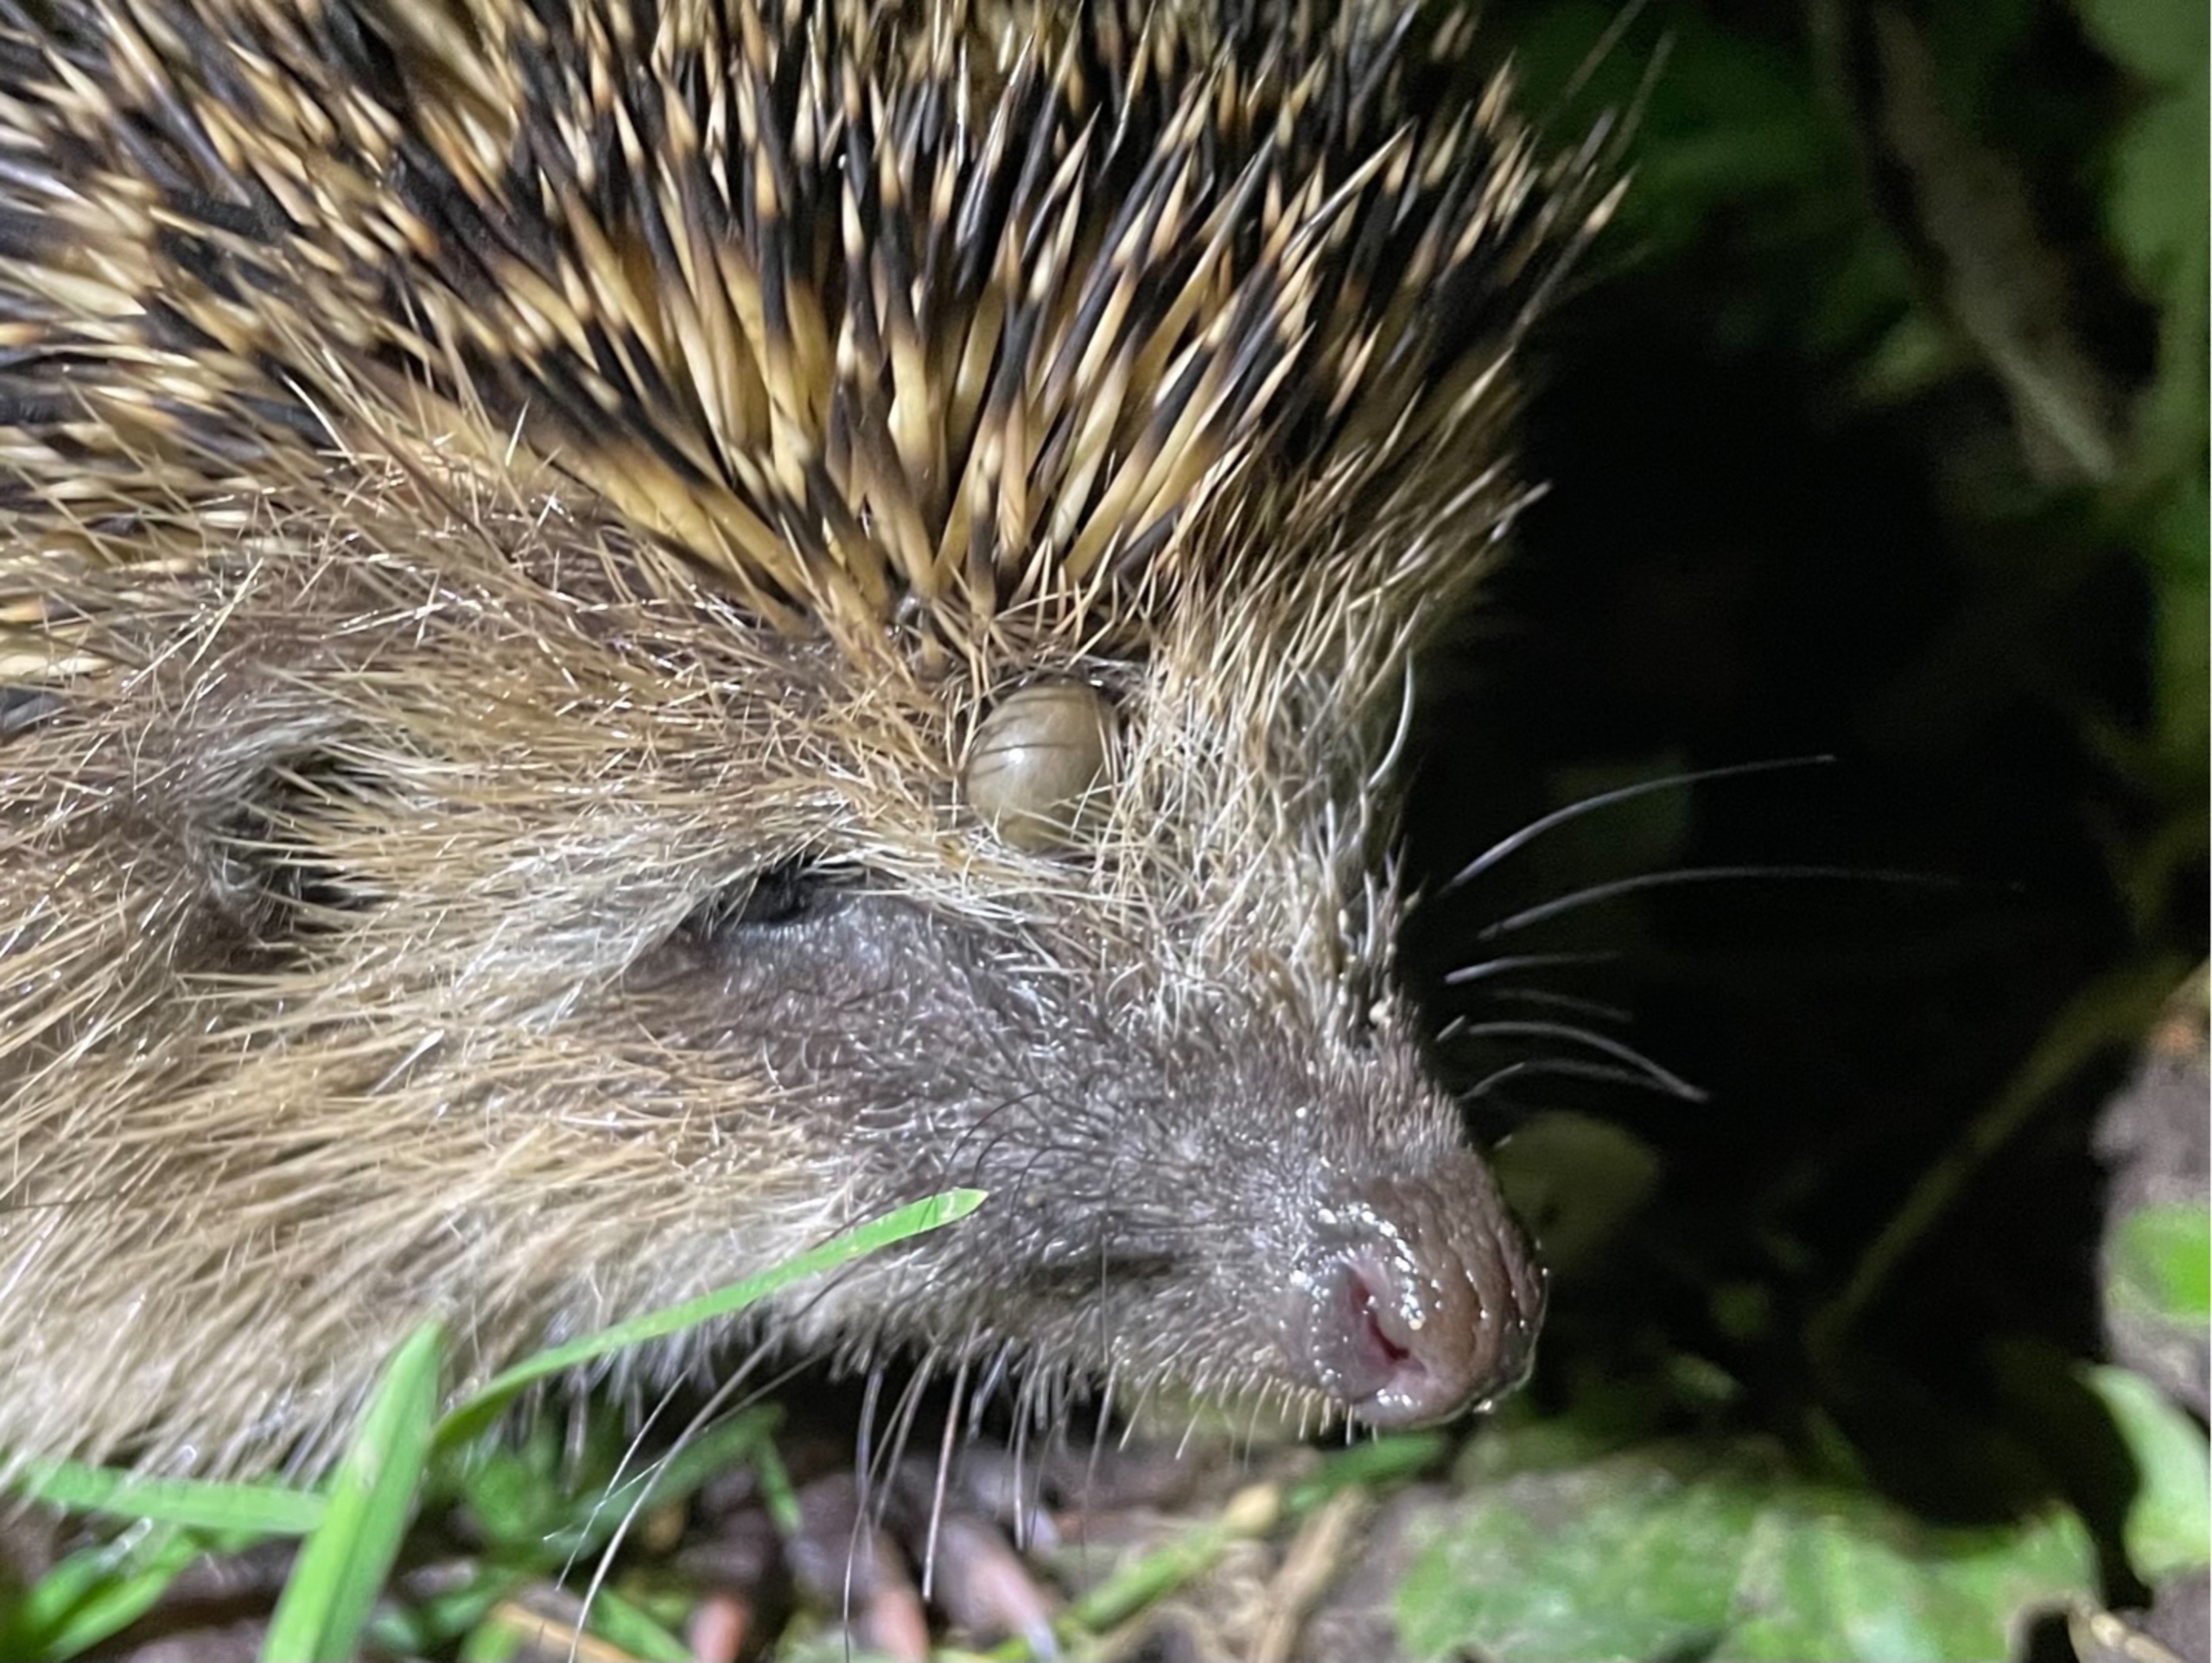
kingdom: Animalia
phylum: Arthropoda
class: Arachnida
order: Ixodida
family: Ixodidae
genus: Ixodes
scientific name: Ixodes ricinus
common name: Skovflåt
